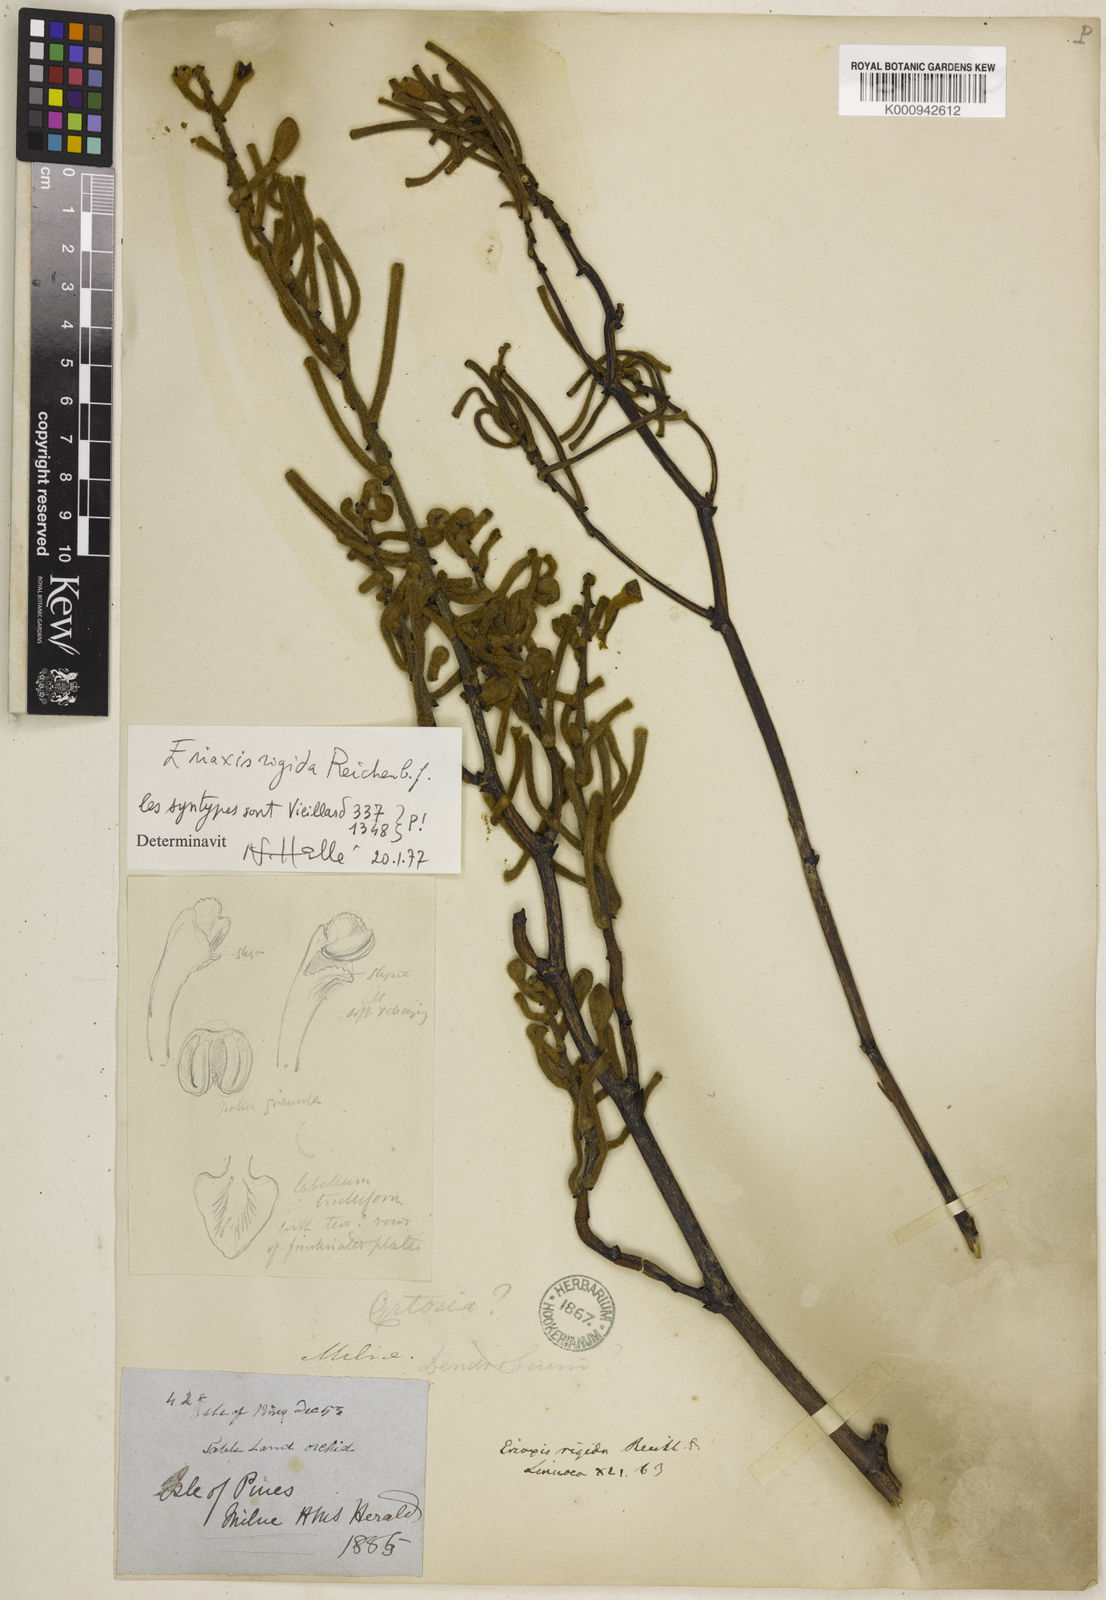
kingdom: Plantae
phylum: Tracheophyta
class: Liliopsida
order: Asparagales
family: Orchidaceae
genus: Eriaxis
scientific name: Eriaxis rigida
